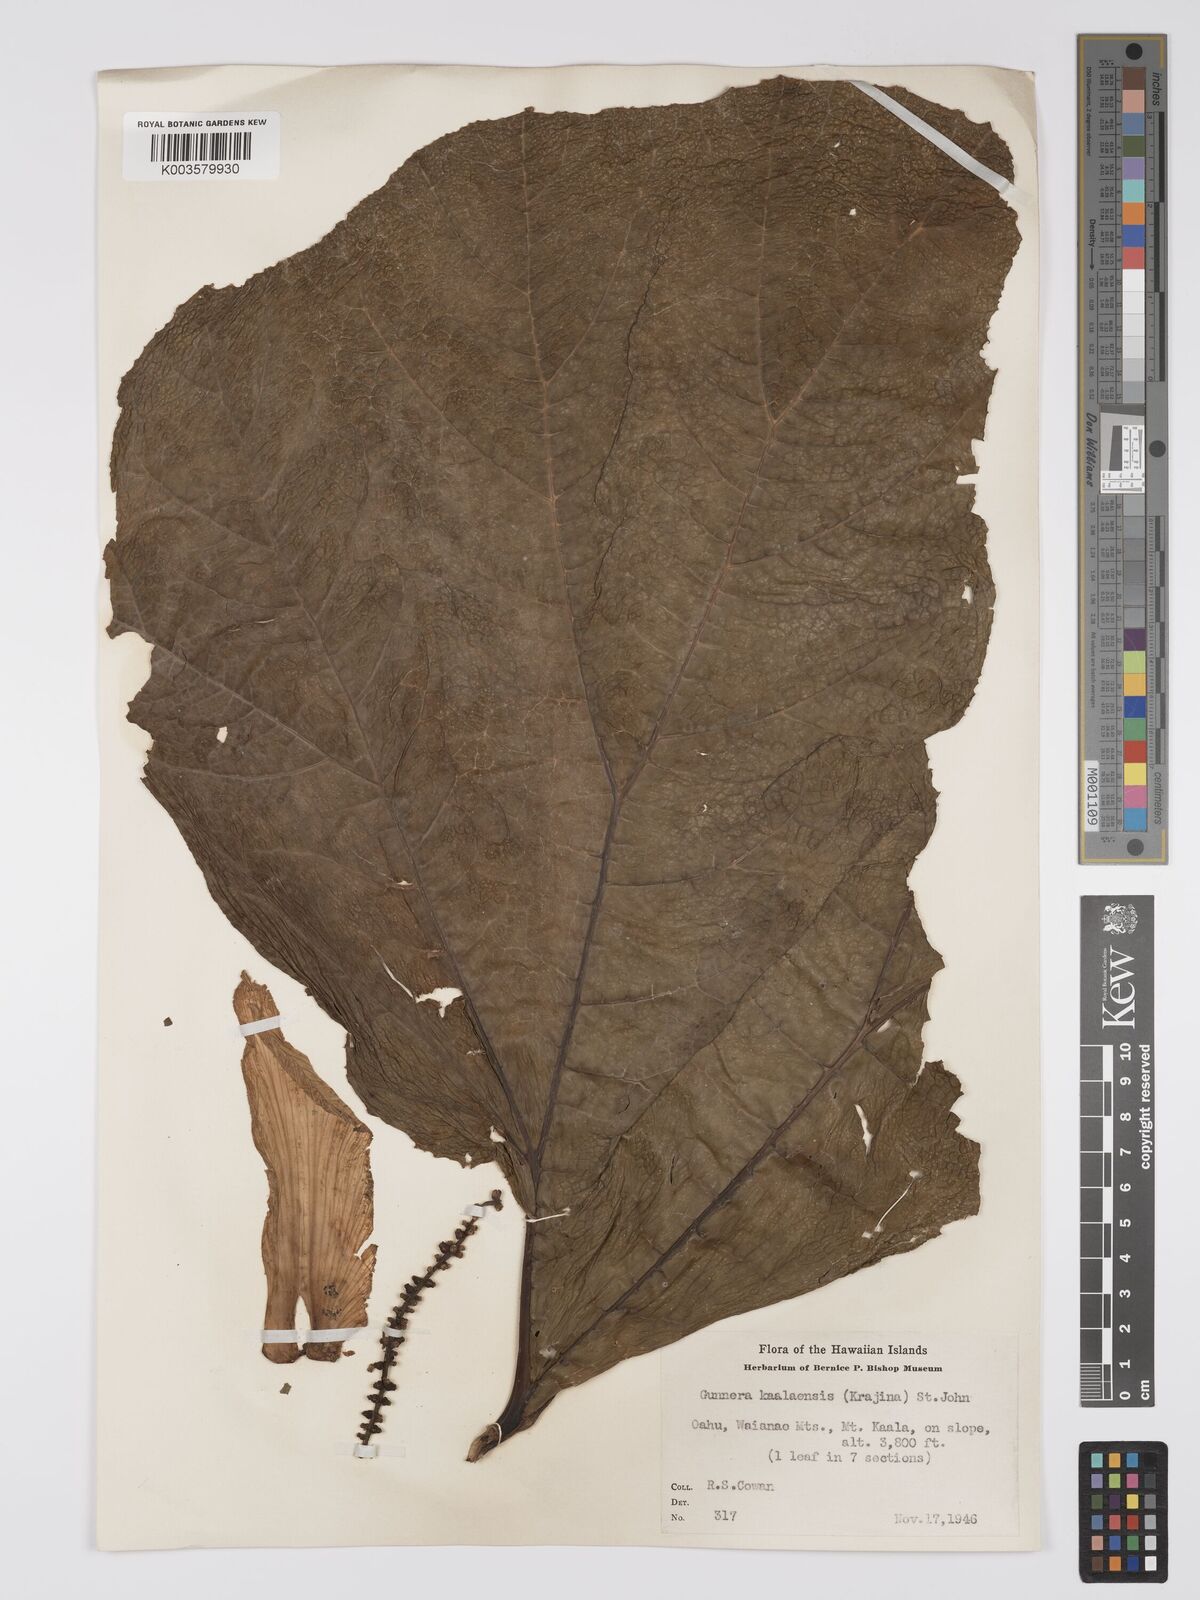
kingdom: Plantae
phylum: Tracheophyta
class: Magnoliopsida
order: Gunnerales
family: Gunneraceae
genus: Gunnera
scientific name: Gunnera petaloidea
